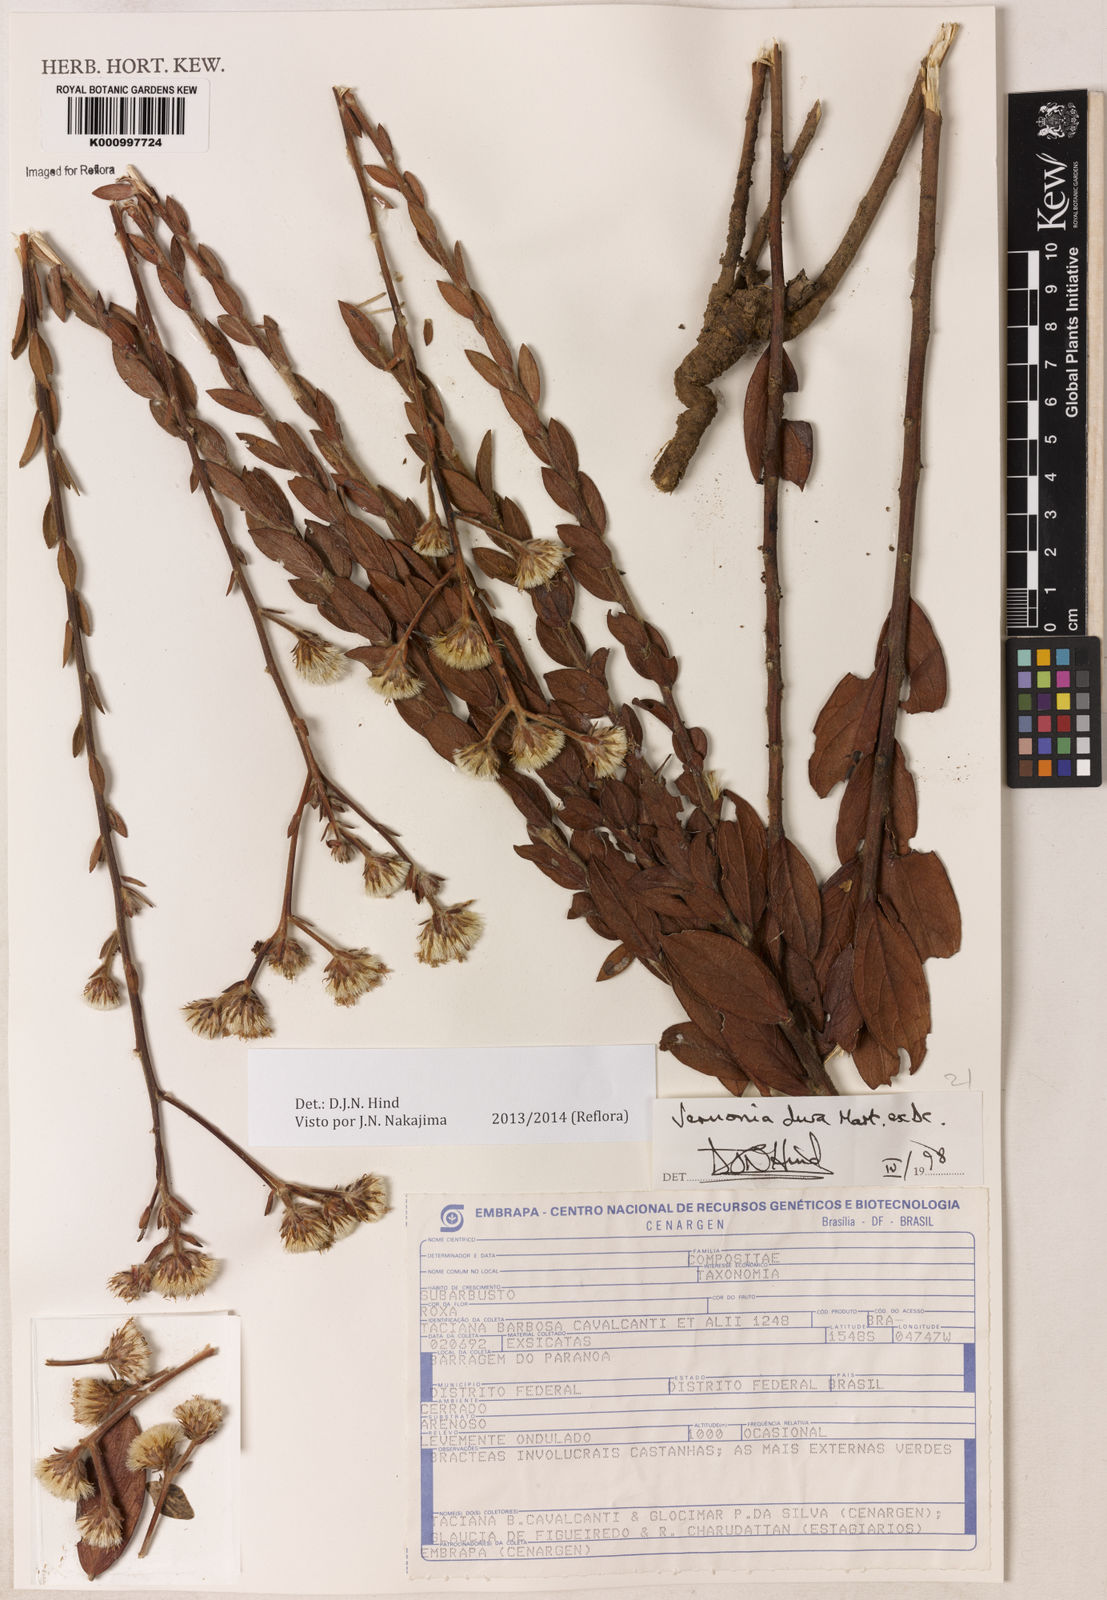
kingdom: Plantae
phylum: Tracheophyta
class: Magnoliopsida
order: Asterales
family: Asteraceae
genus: Lessingianthus
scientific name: Lessingianthus durus
